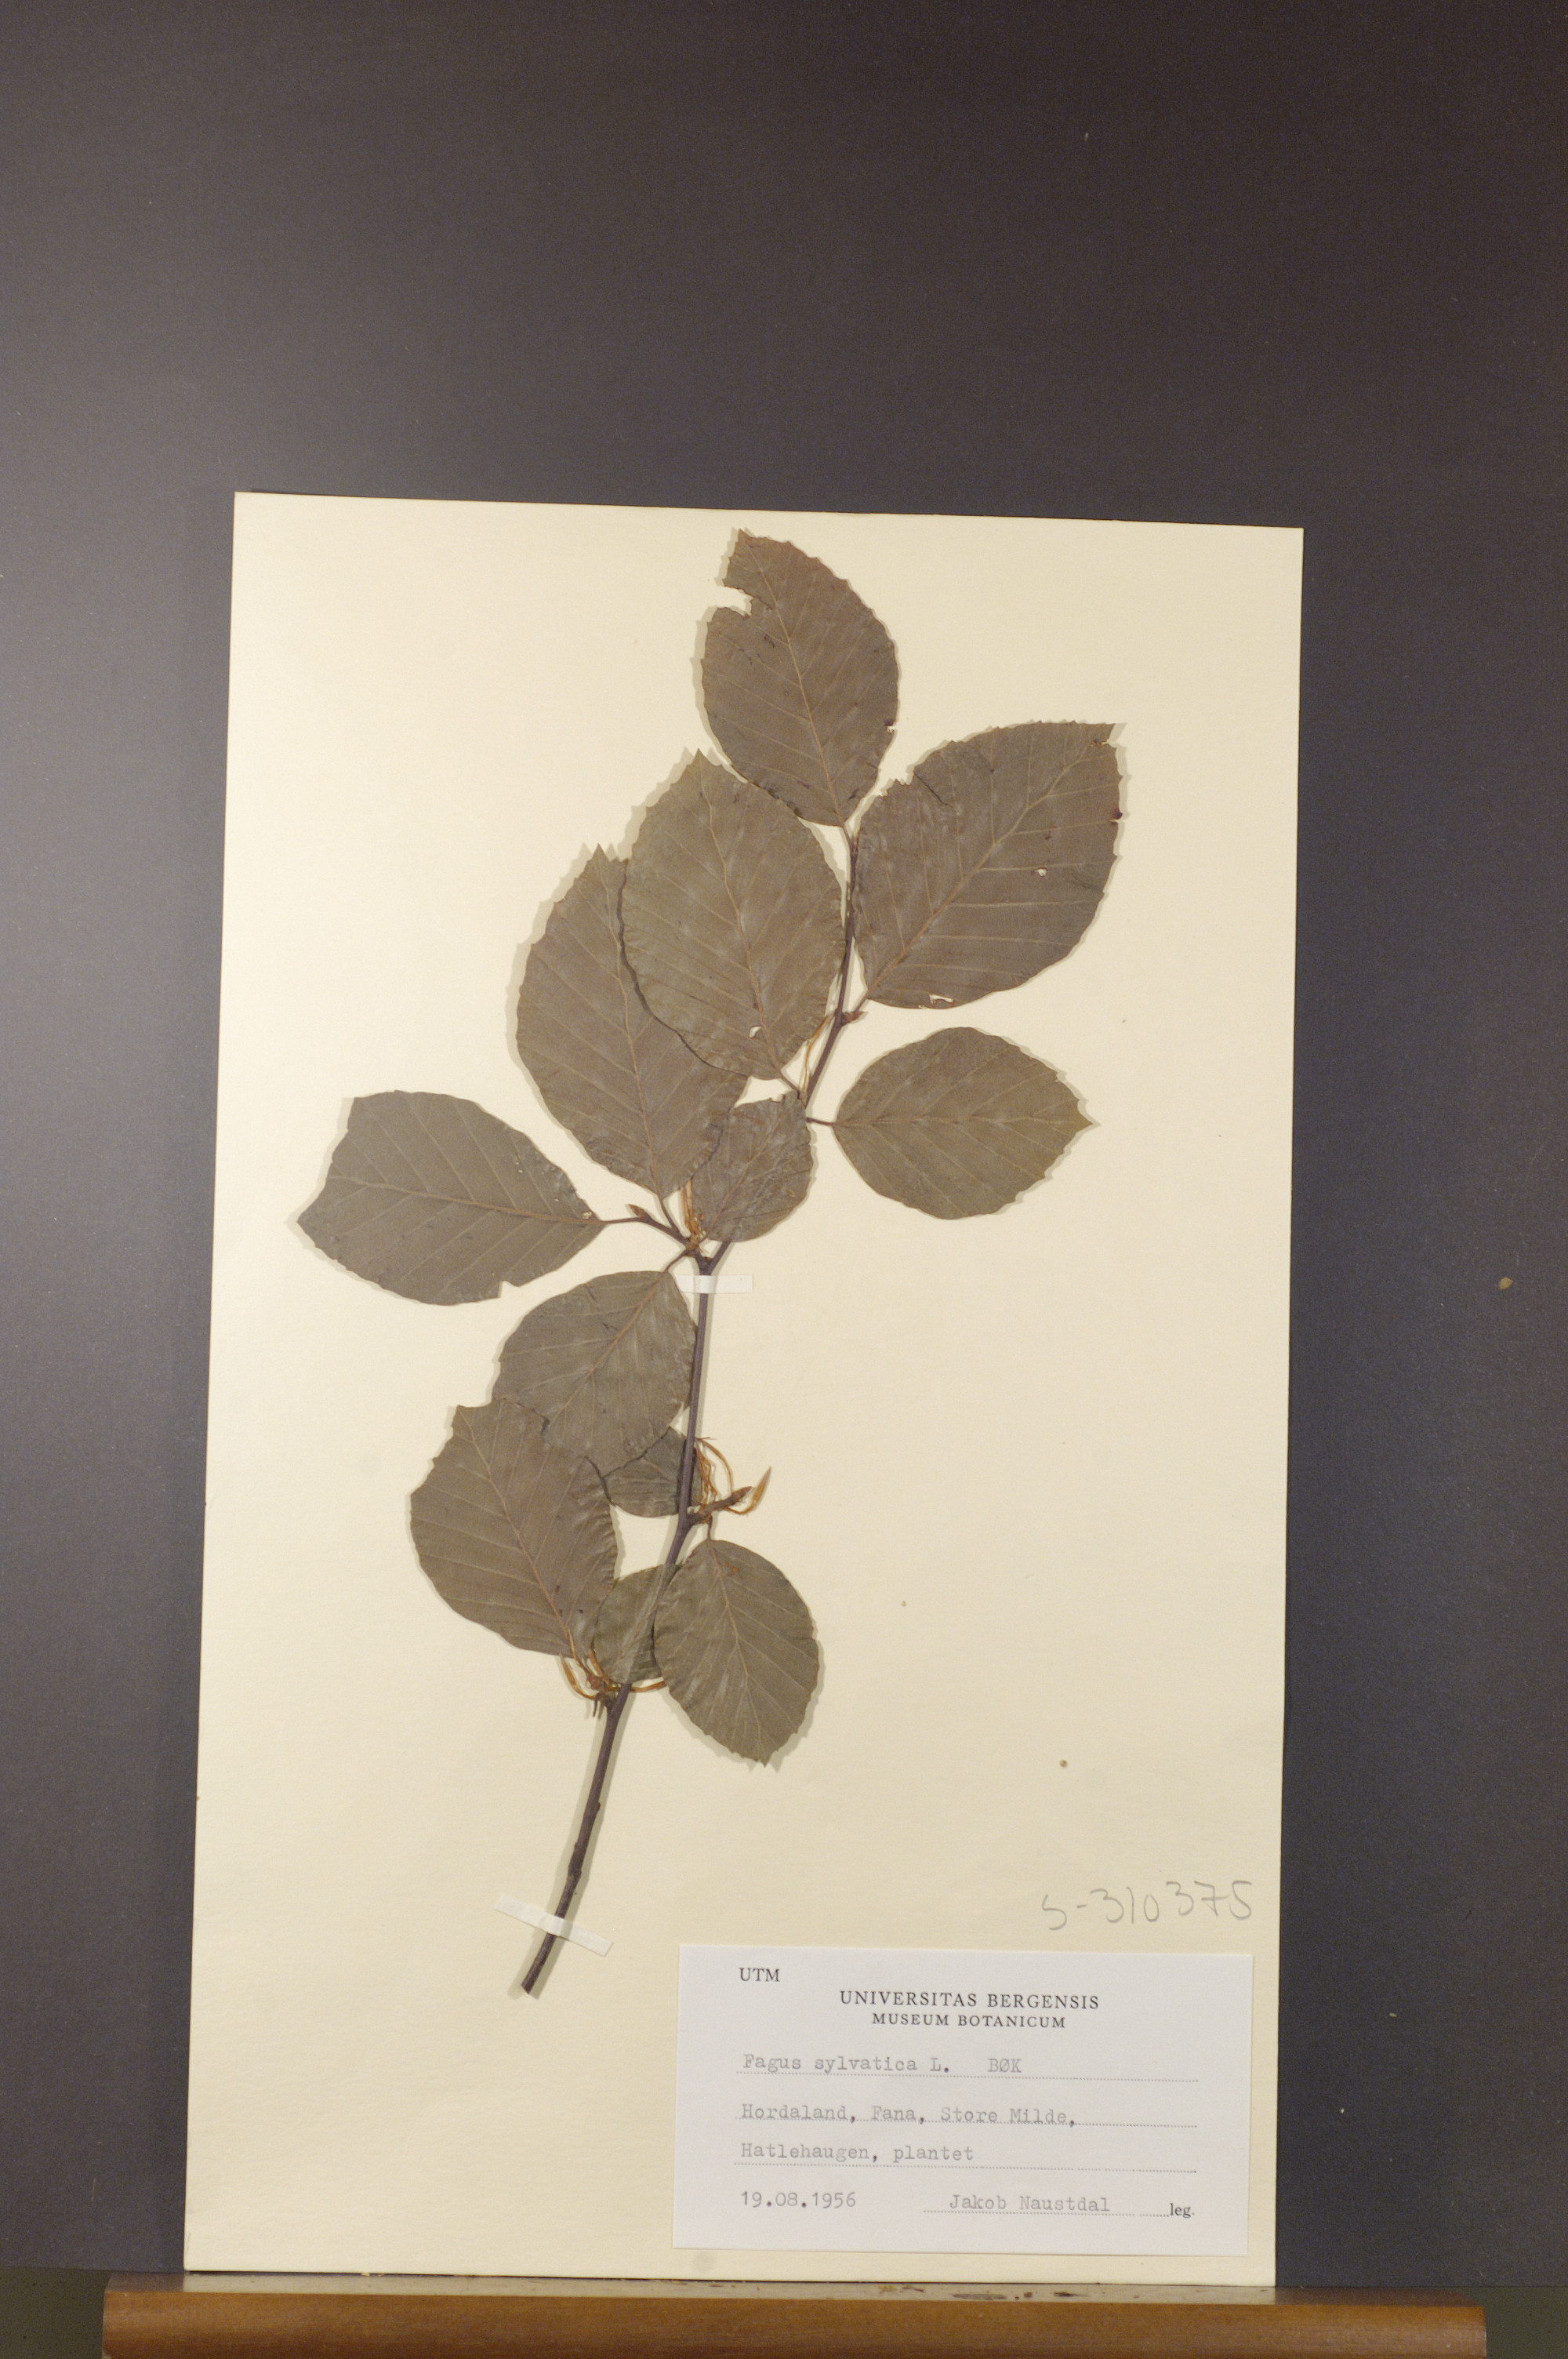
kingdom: Plantae
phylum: Tracheophyta
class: Magnoliopsida
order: Fagales
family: Fagaceae
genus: Fagus
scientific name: Fagus sylvatica
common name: Beech
